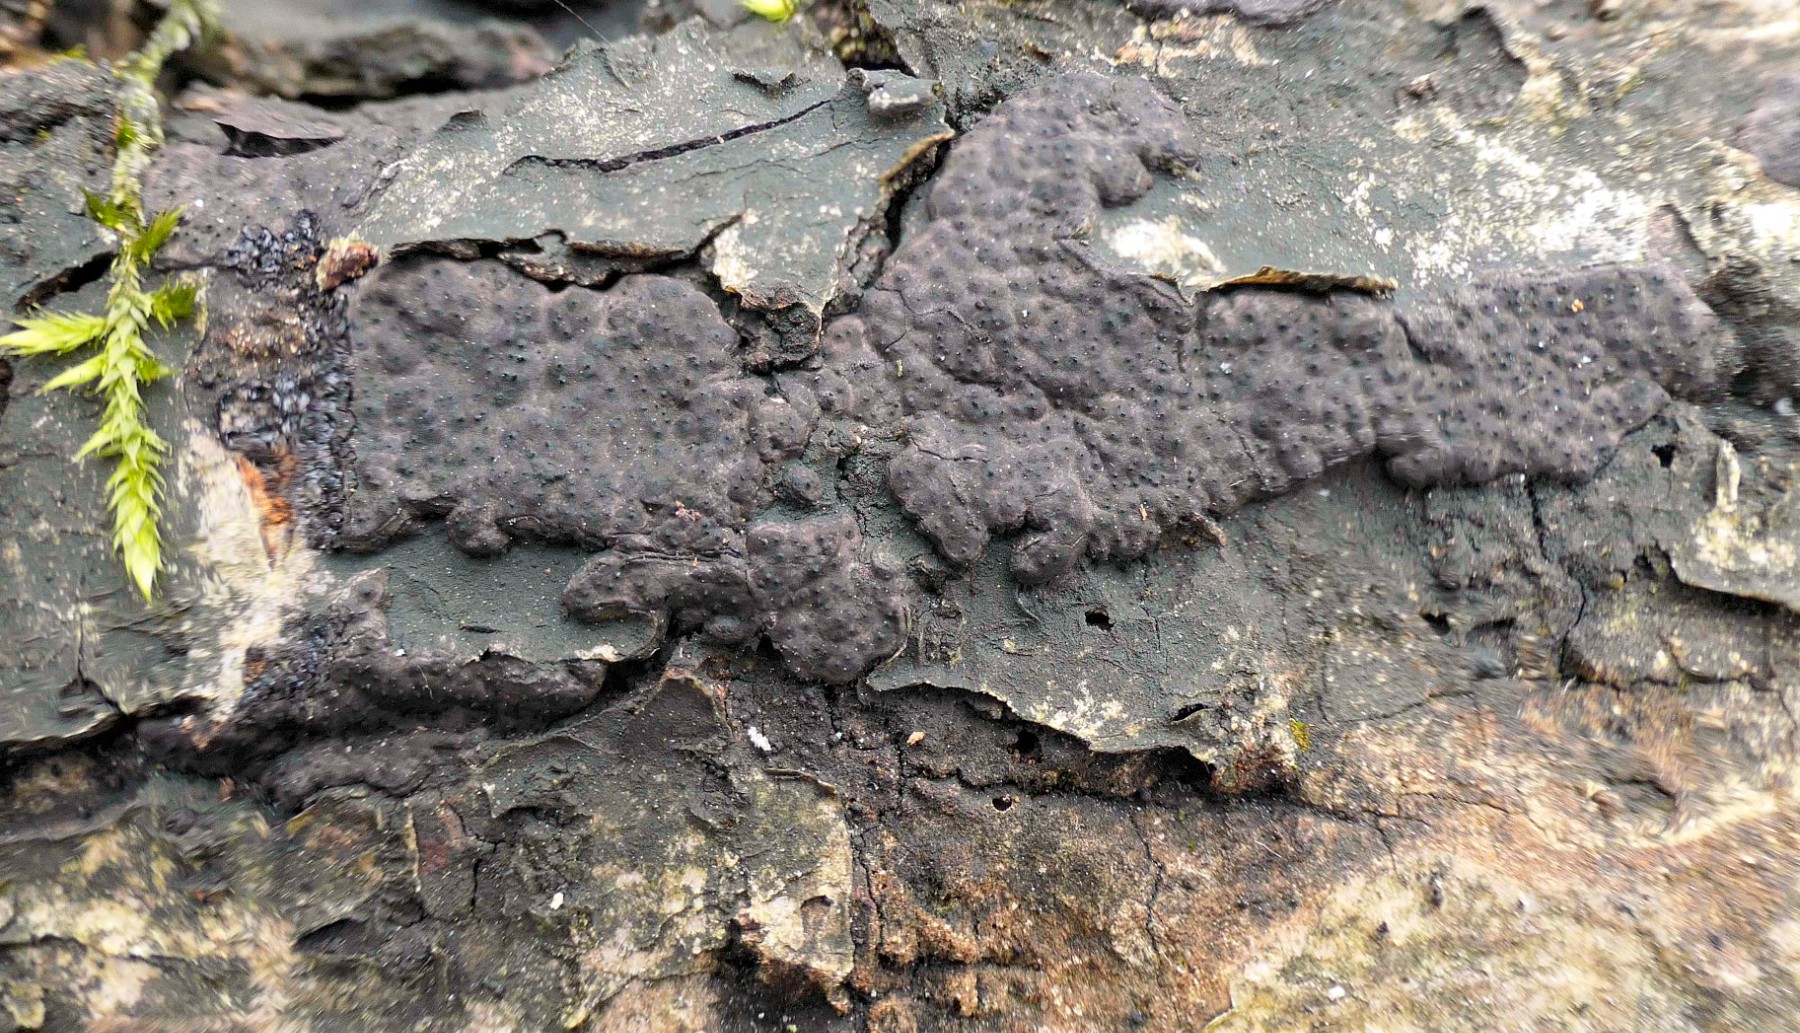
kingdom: Fungi
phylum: Ascomycota
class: Sordariomycetes
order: Xylariales
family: Xylariaceae
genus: Nemania
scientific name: Nemania diffusa
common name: brun kuldyne
